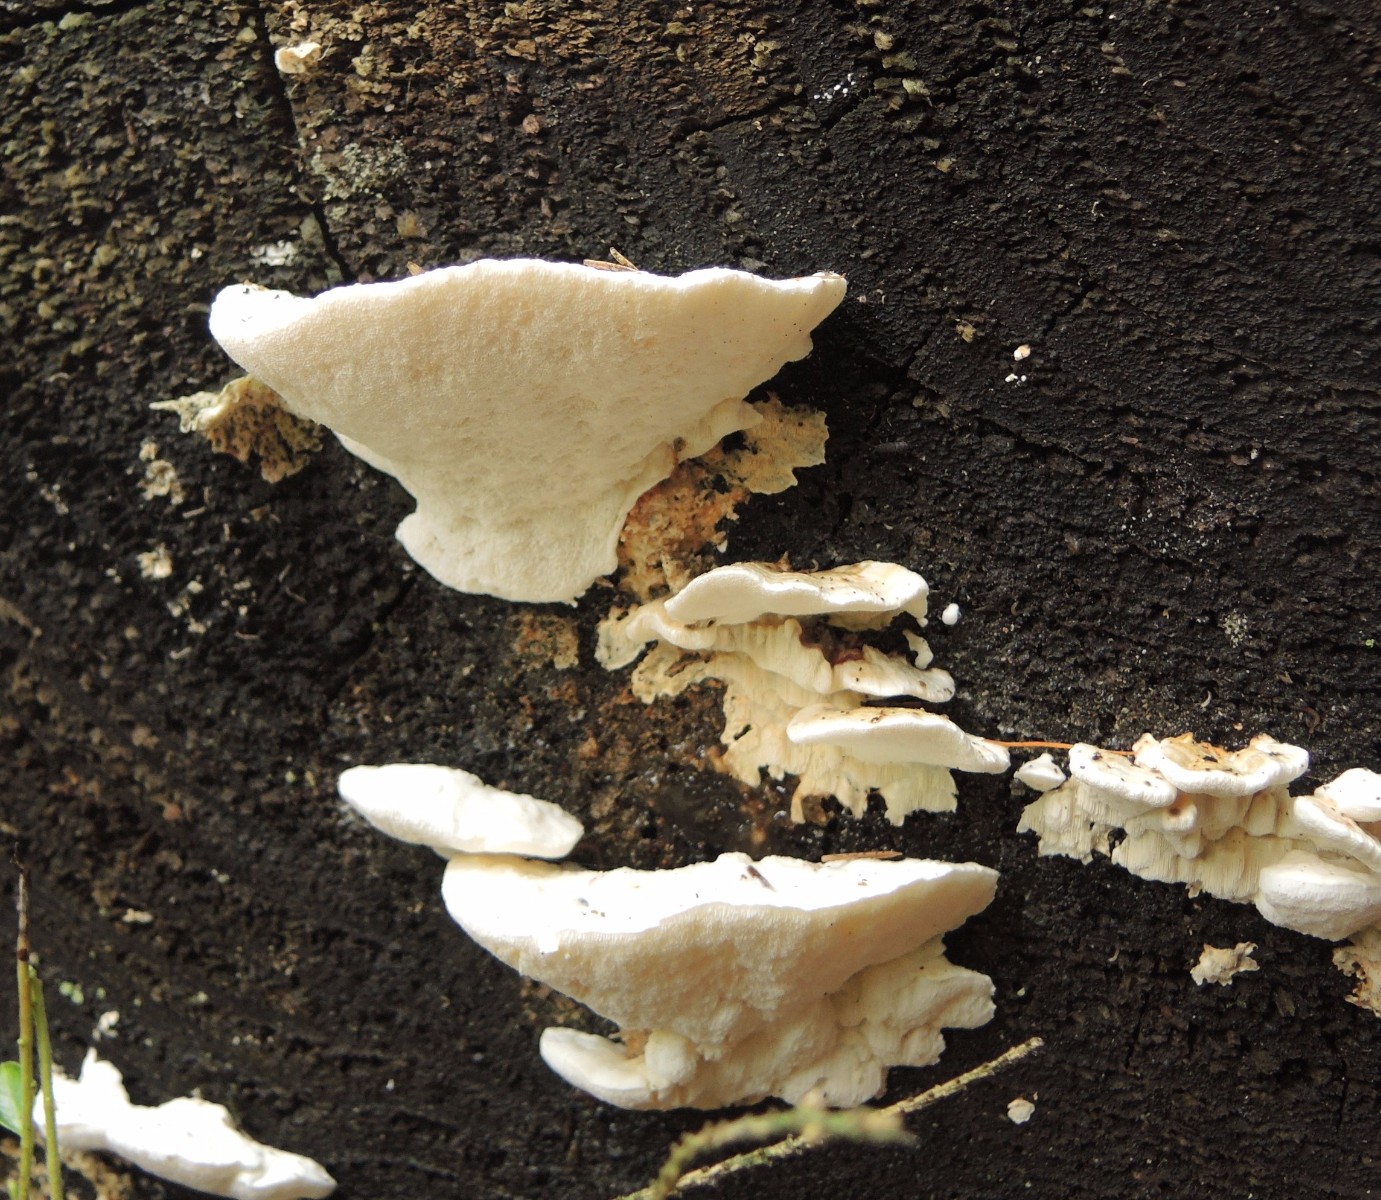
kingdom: Fungi
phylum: Basidiomycota
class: Agaricomycetes
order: Polyporales
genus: Amaropostia
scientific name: Amaropostia stiptica
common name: bitter kødporesvamp
